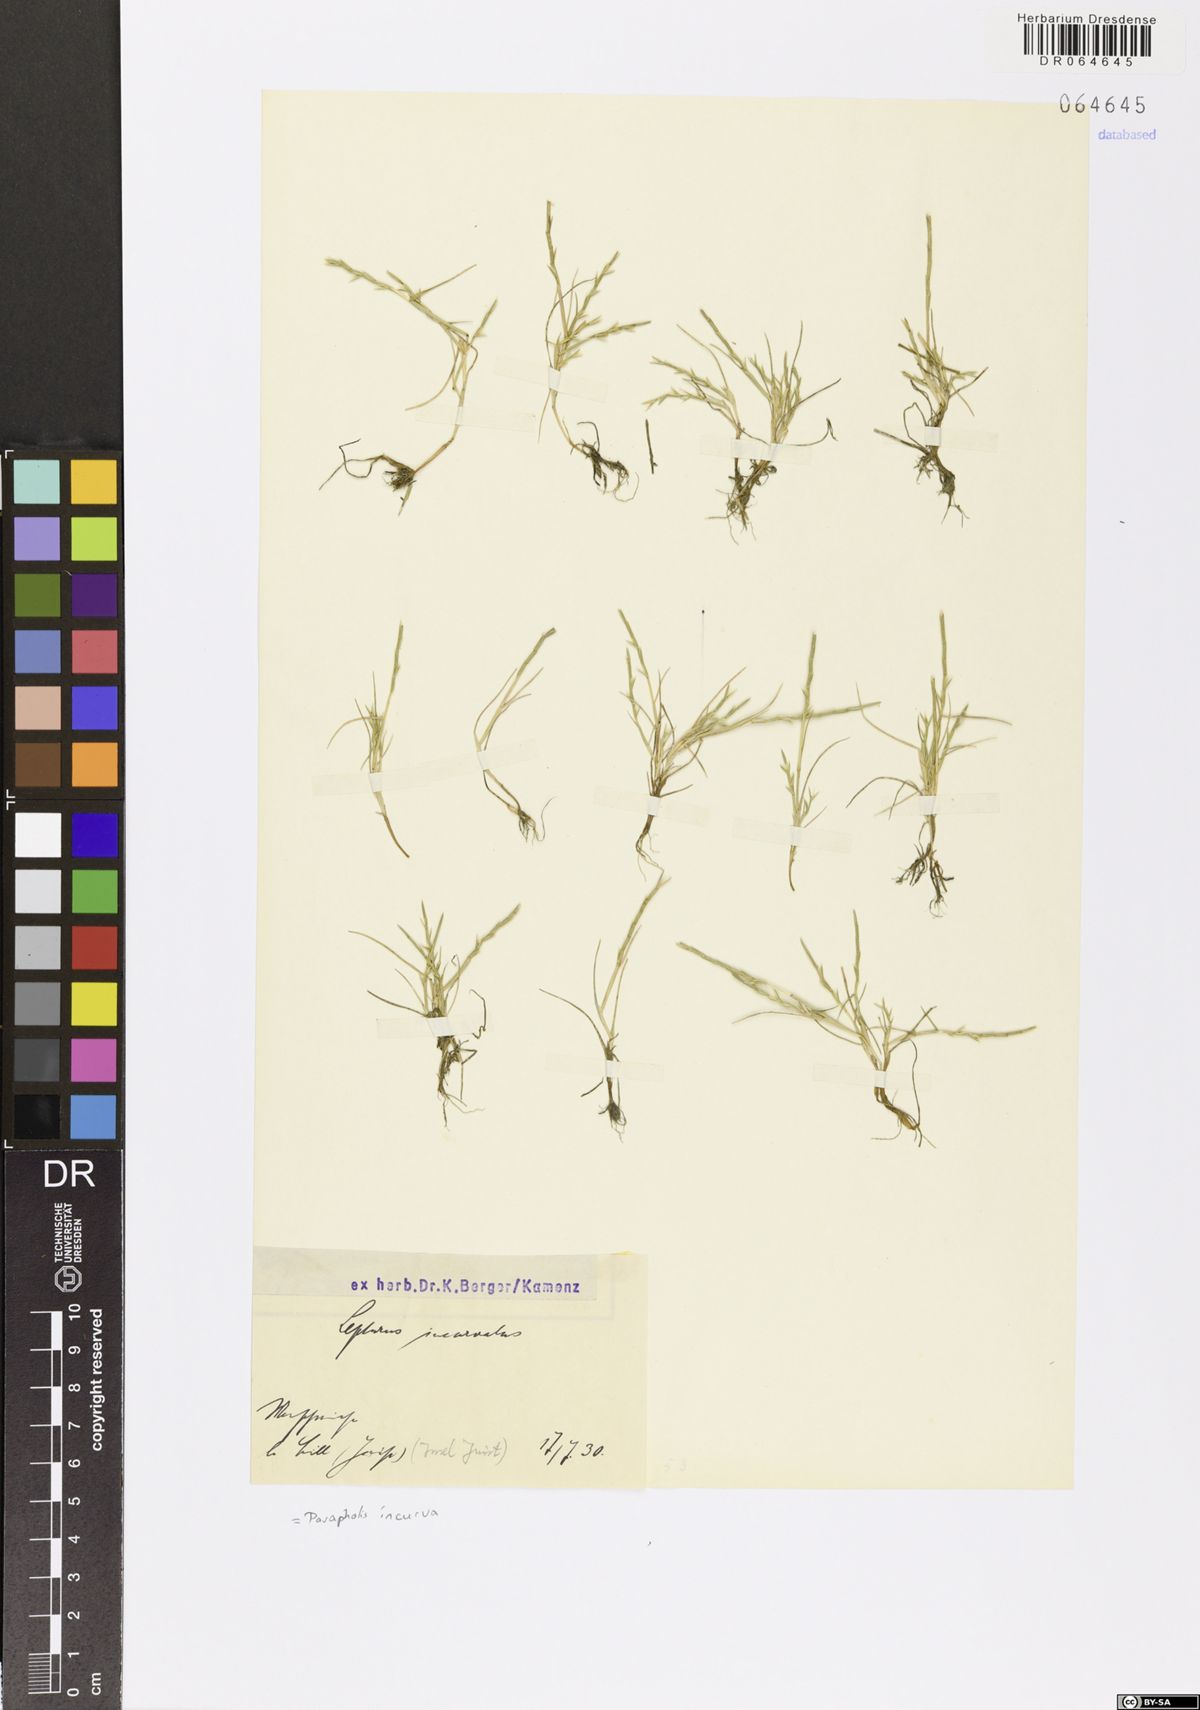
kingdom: Plantae
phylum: Tracheophyta
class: Liliopsida
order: Poales
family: Poaceae
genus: Parapholis
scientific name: Parapholis incurva
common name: Curved sicklegrass
